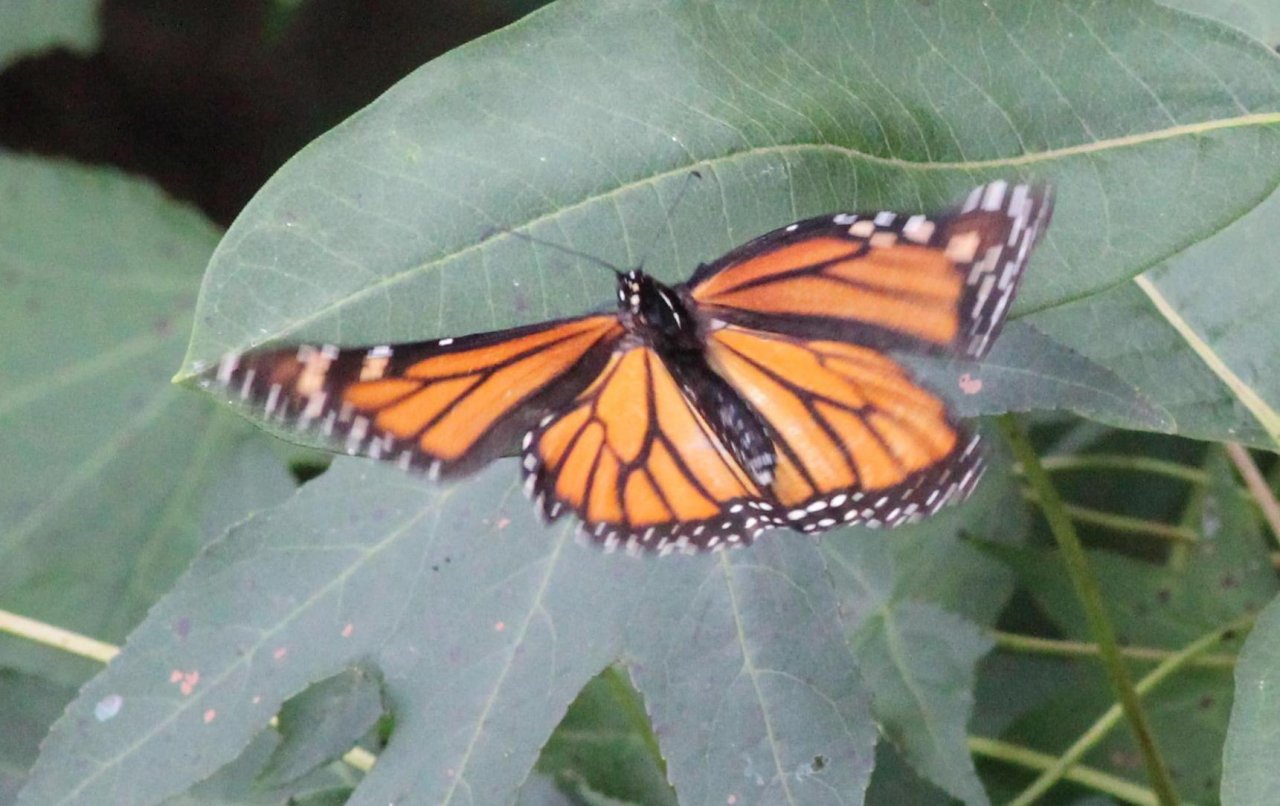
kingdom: Animalia
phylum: Arthropoda
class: Insecta
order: Lepidoptera
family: Nymphalidae
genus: Danaus
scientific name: Danaus plexippus
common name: Monarch
